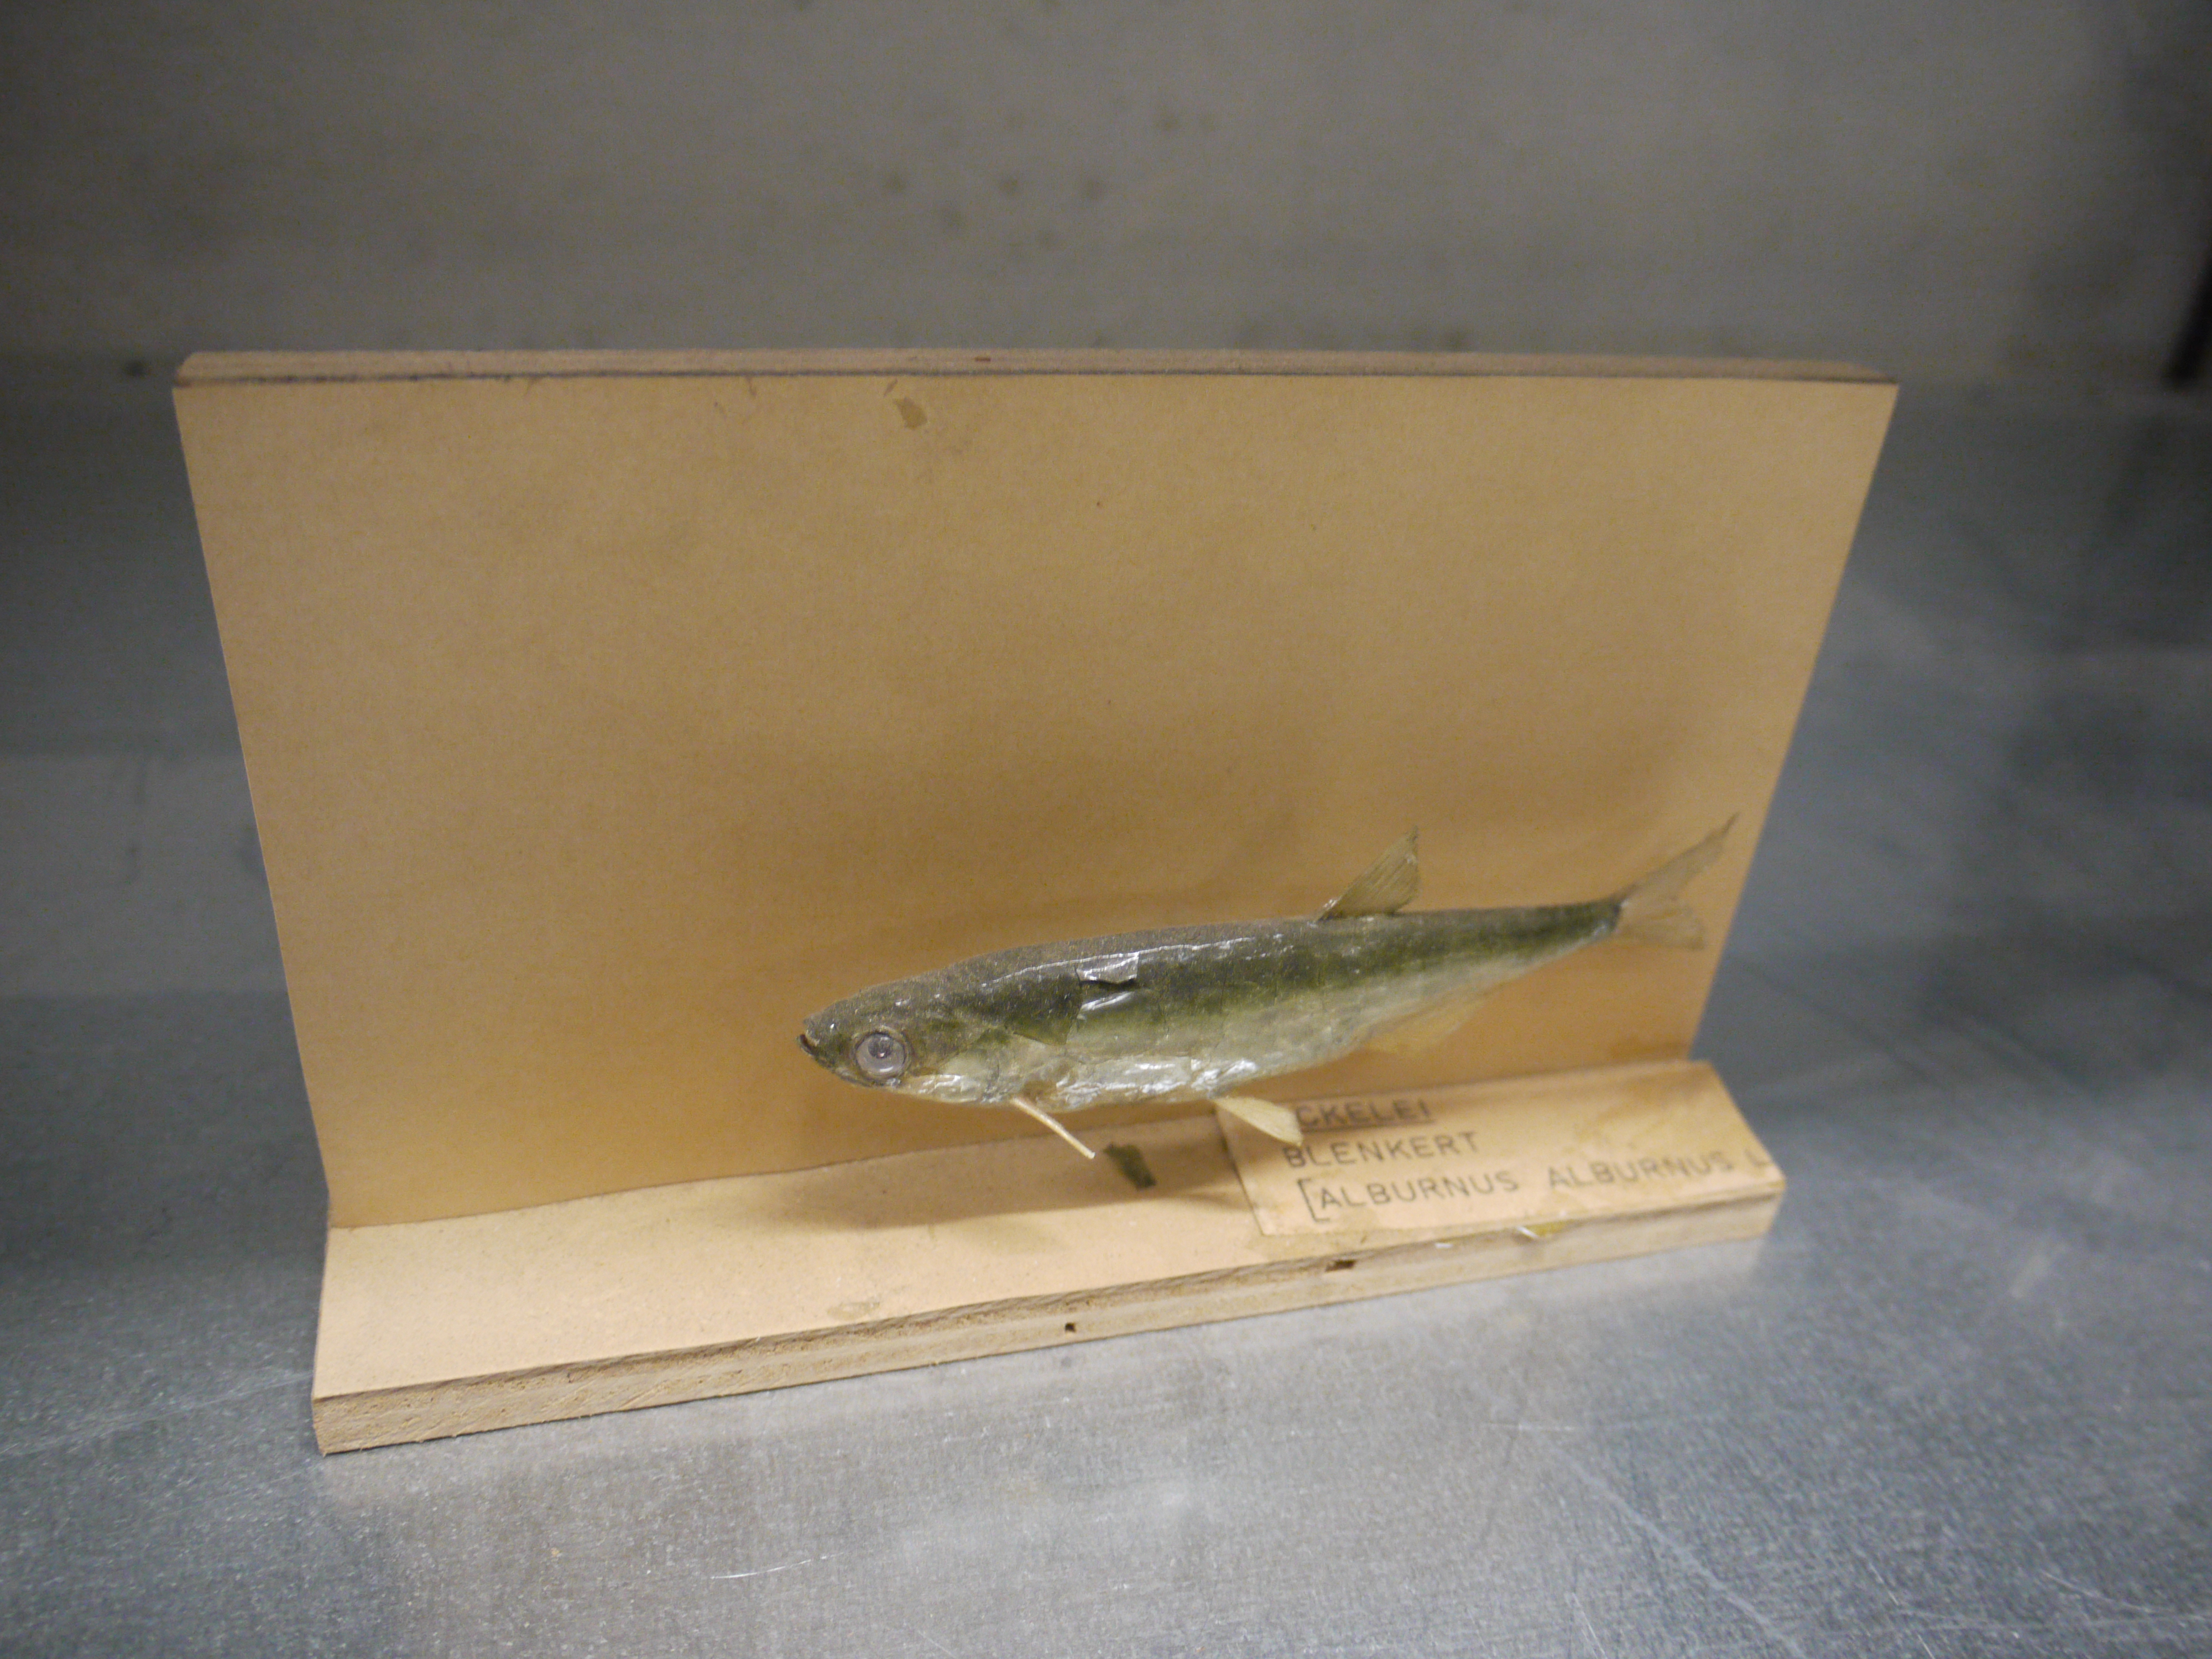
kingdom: Animalia
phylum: Chordata
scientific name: Chordata
